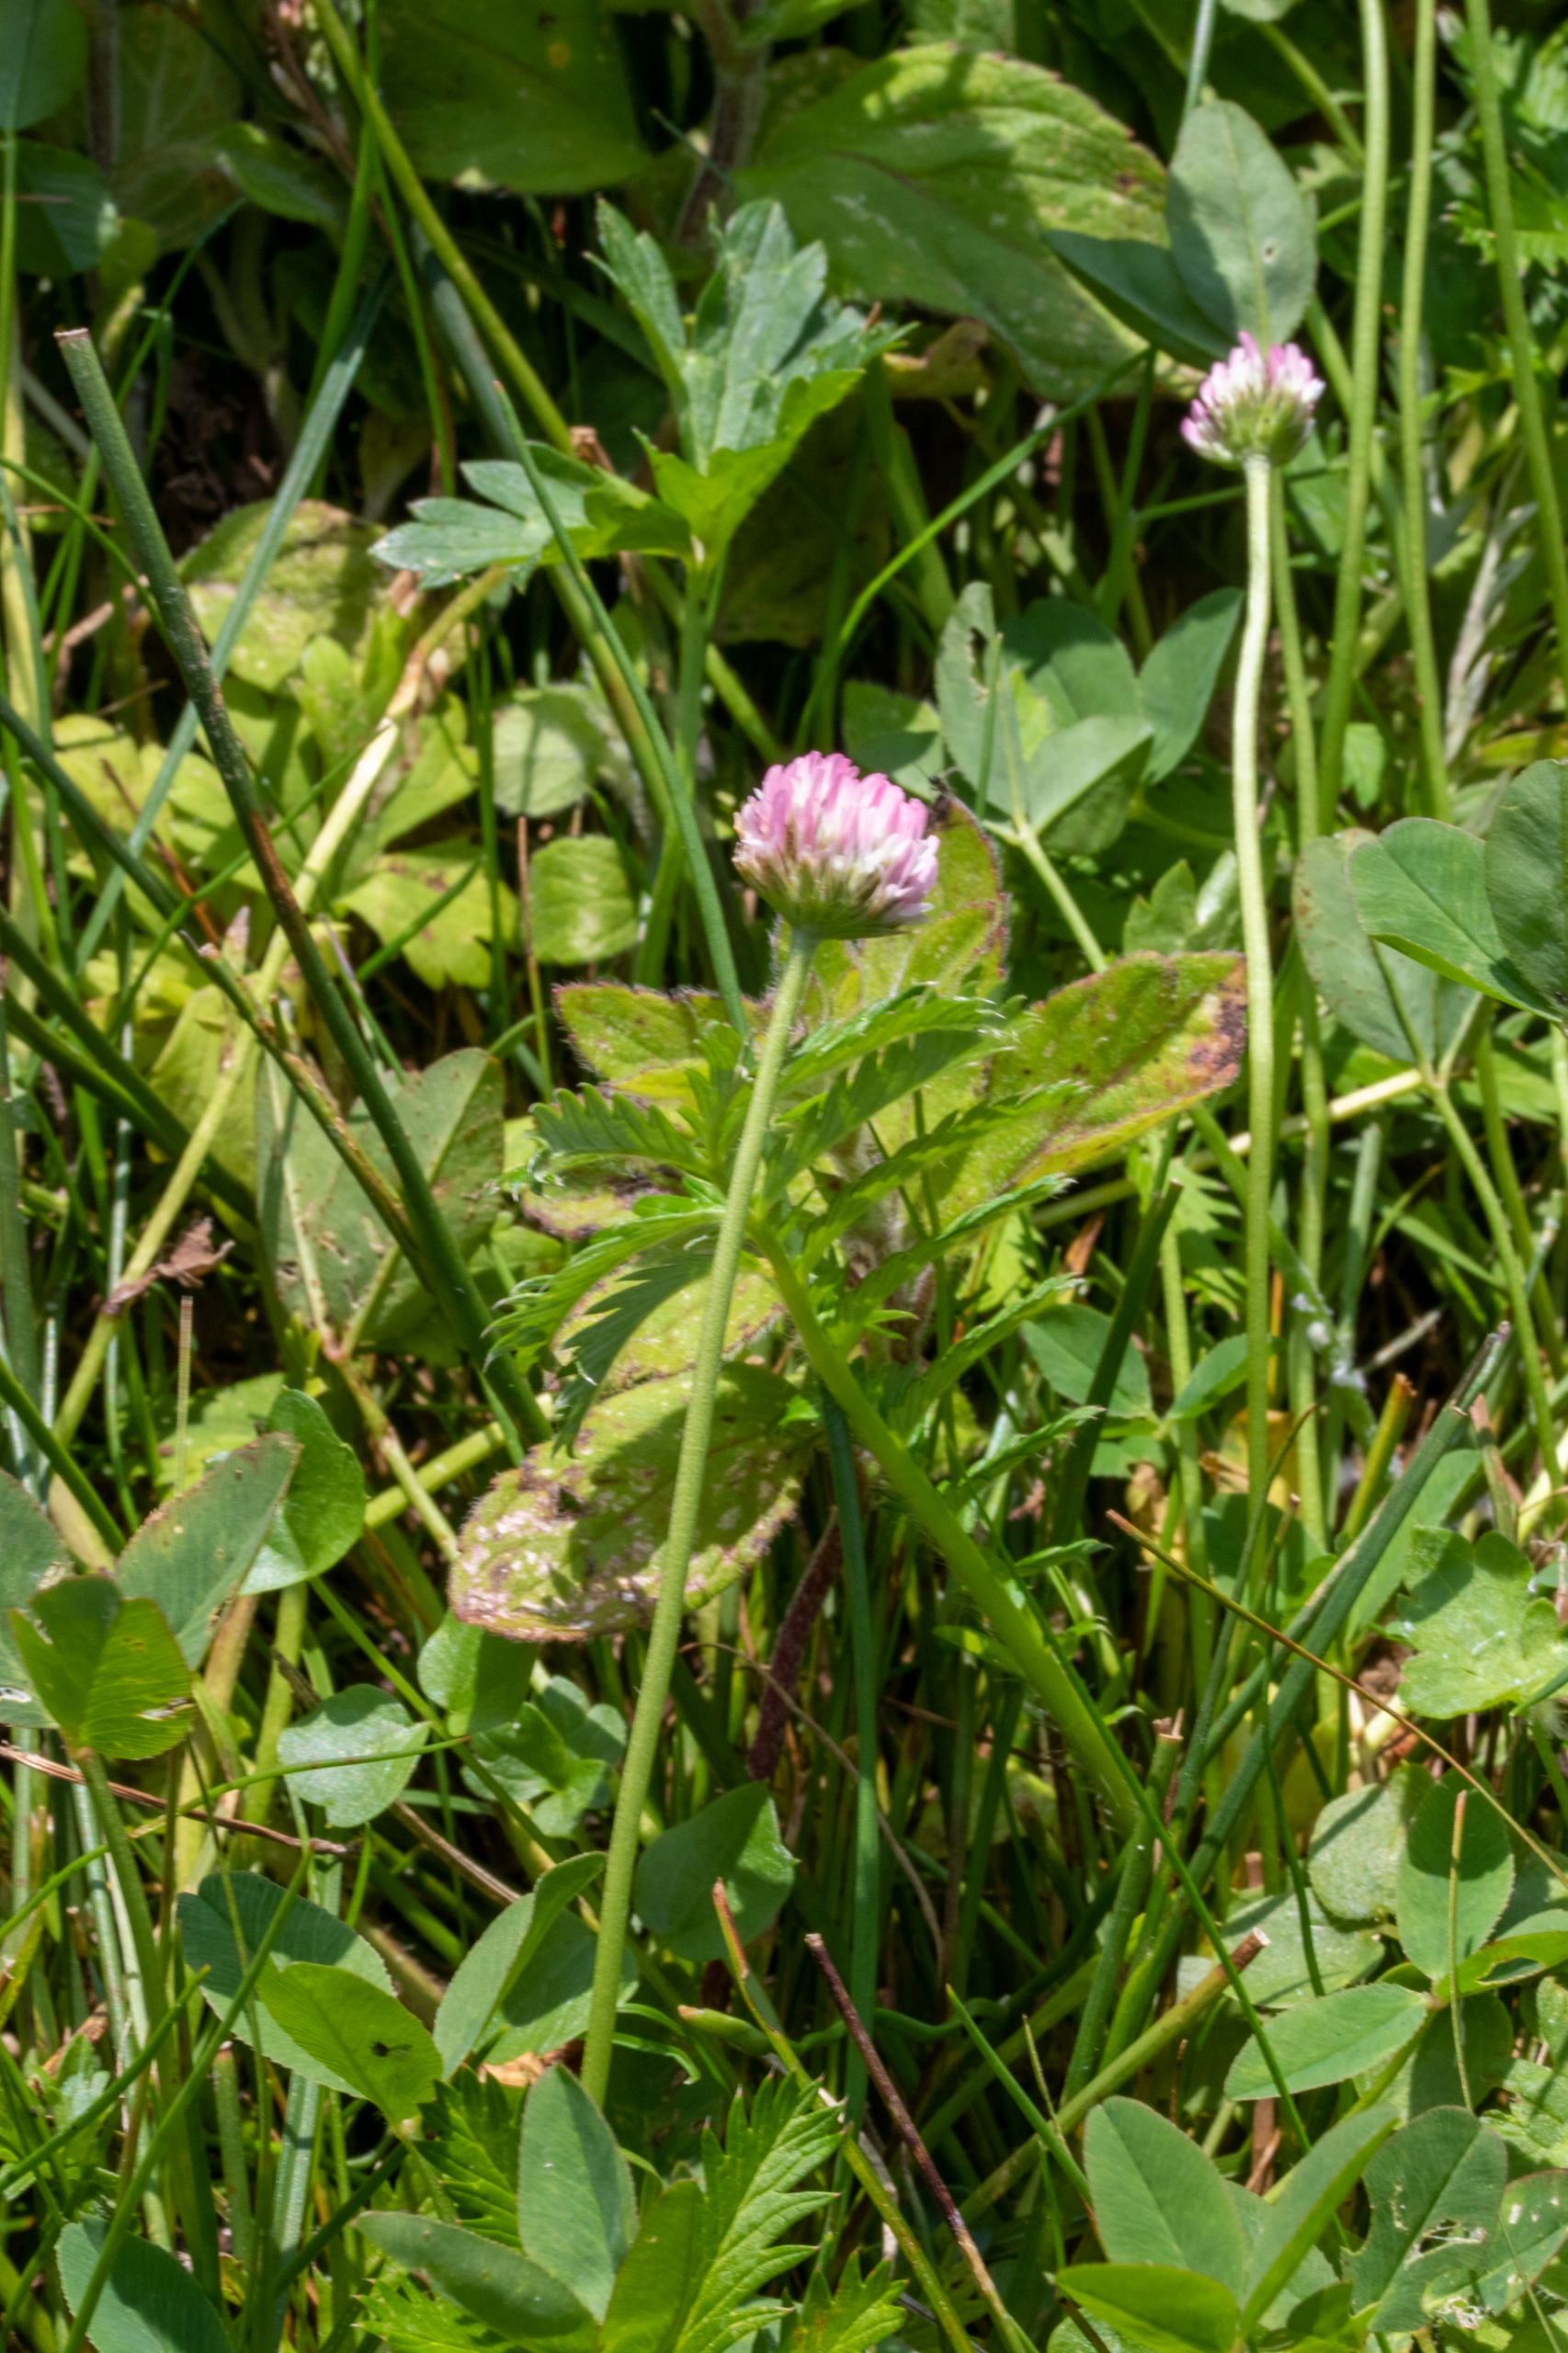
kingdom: Plantae
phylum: Tracheophyta
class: Magnoliopsida
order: Fabales
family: Fabaceae
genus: Trifolium
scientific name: Trifolium fragiferum
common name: Jordbær-kløver
